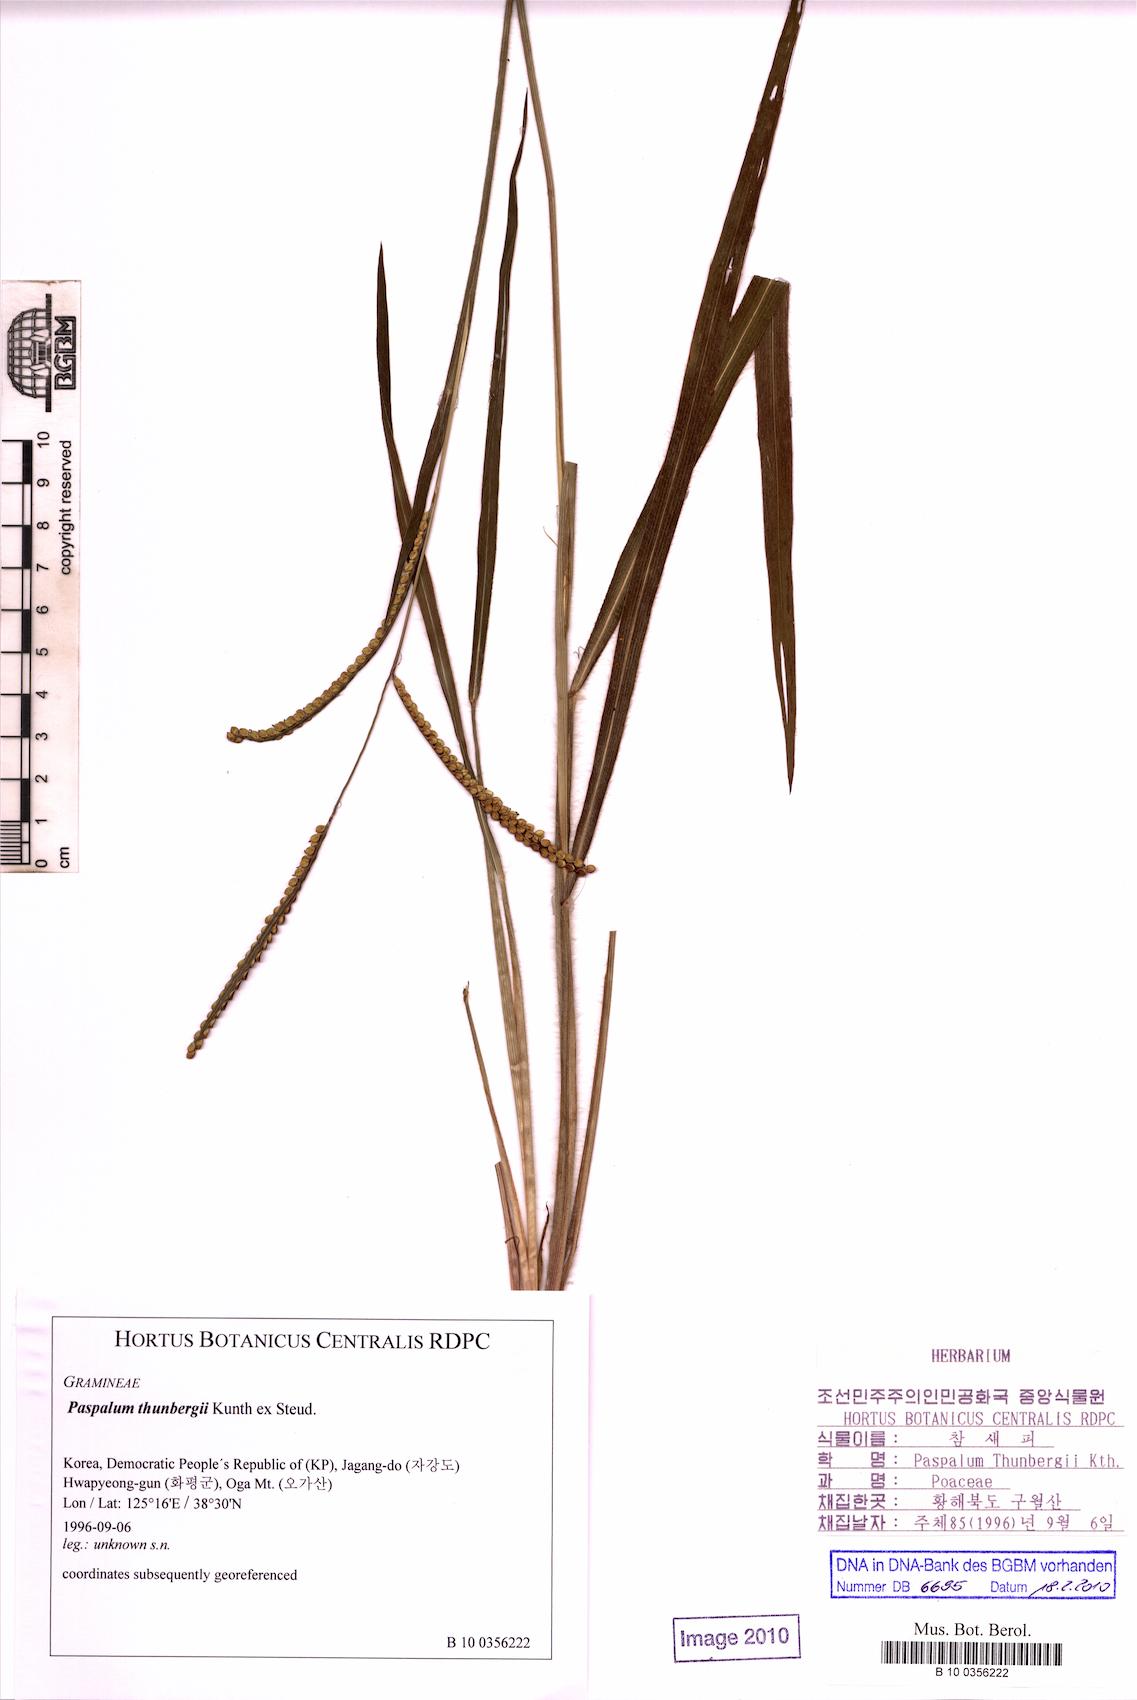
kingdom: Plantae
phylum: Tracheophyta
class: Liliopsida
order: Poales
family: Poaceae
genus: Paspalum
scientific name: Paspalum thunbergii
